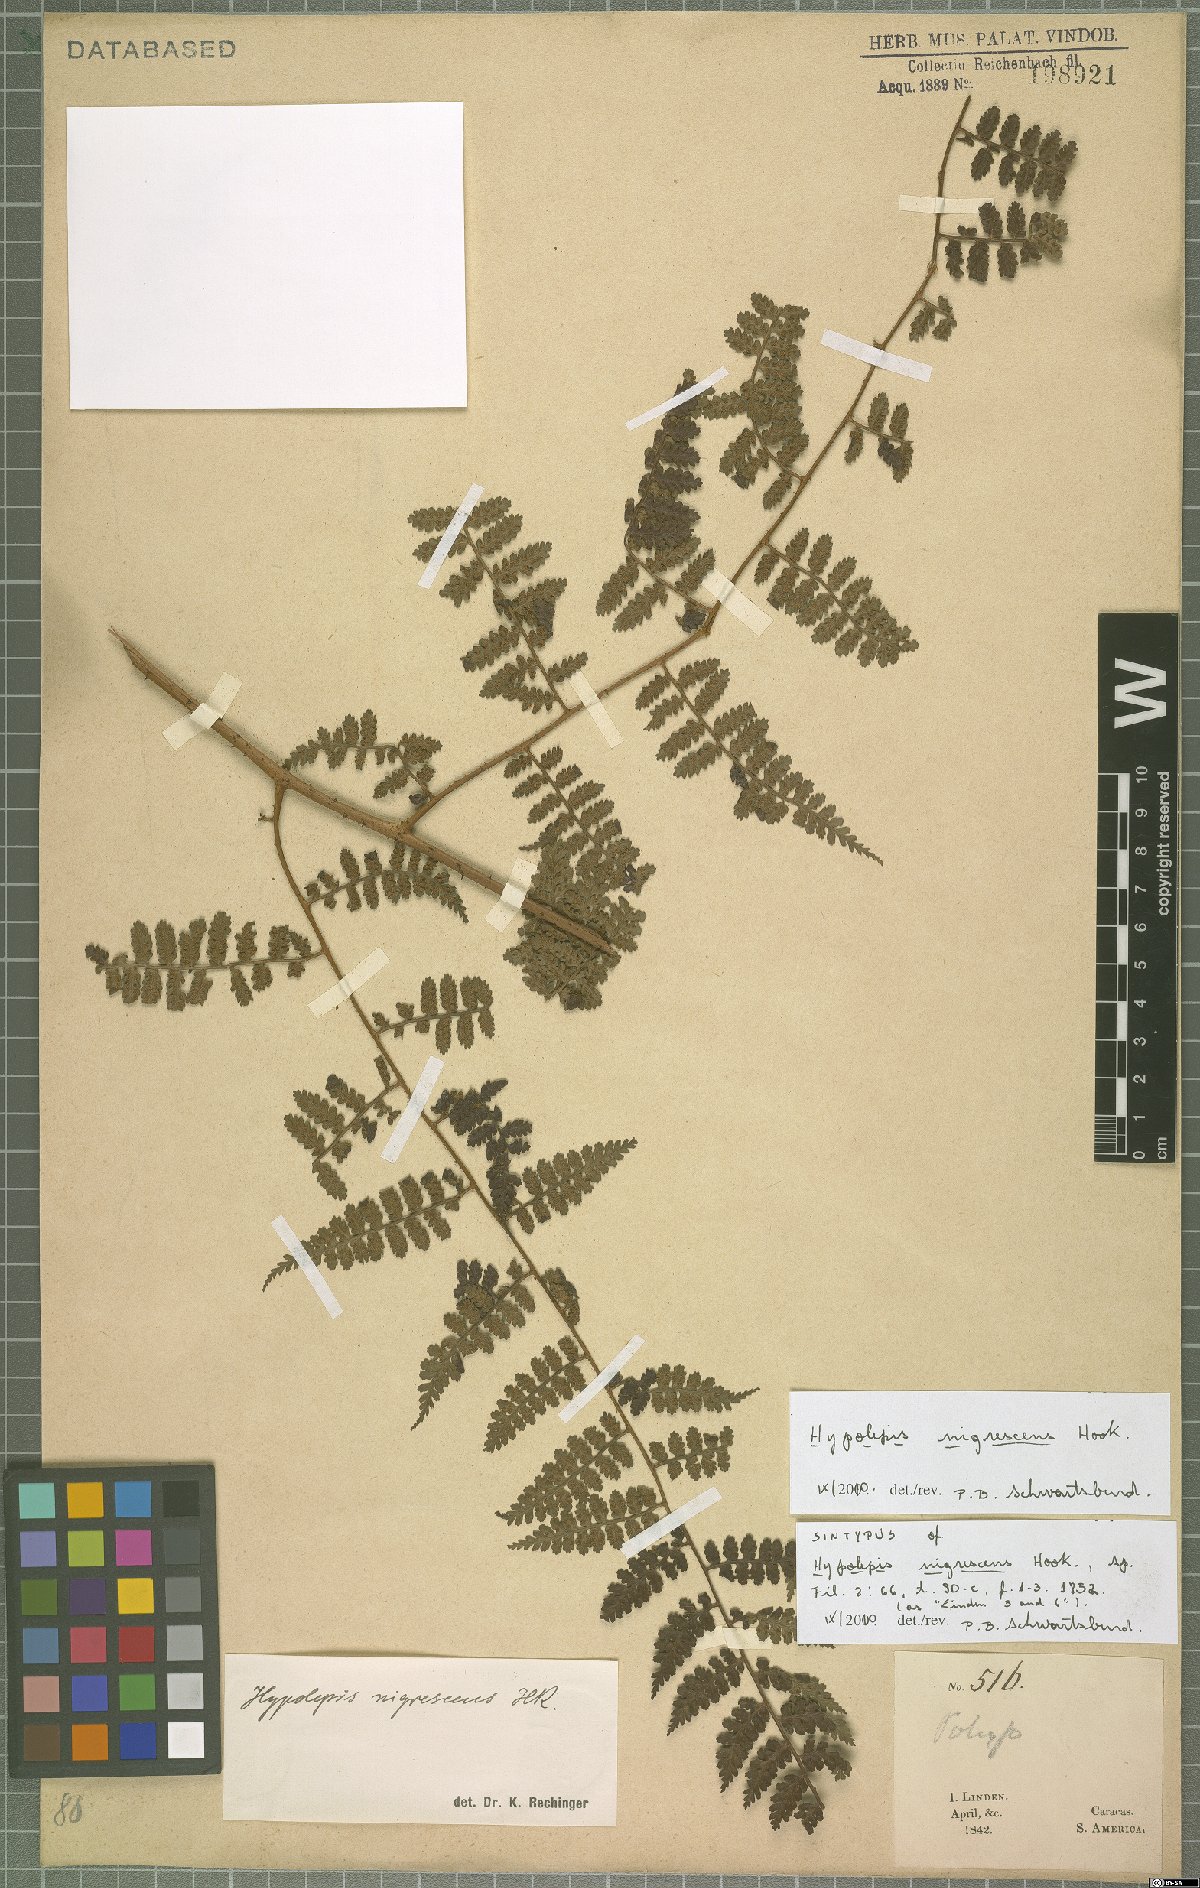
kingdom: Plantae
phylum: Tracheophyta
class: Polypodiopsida
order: Polypodiales
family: Dennstaedtiaceae
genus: Hiya
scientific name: Hiya nigrescens
